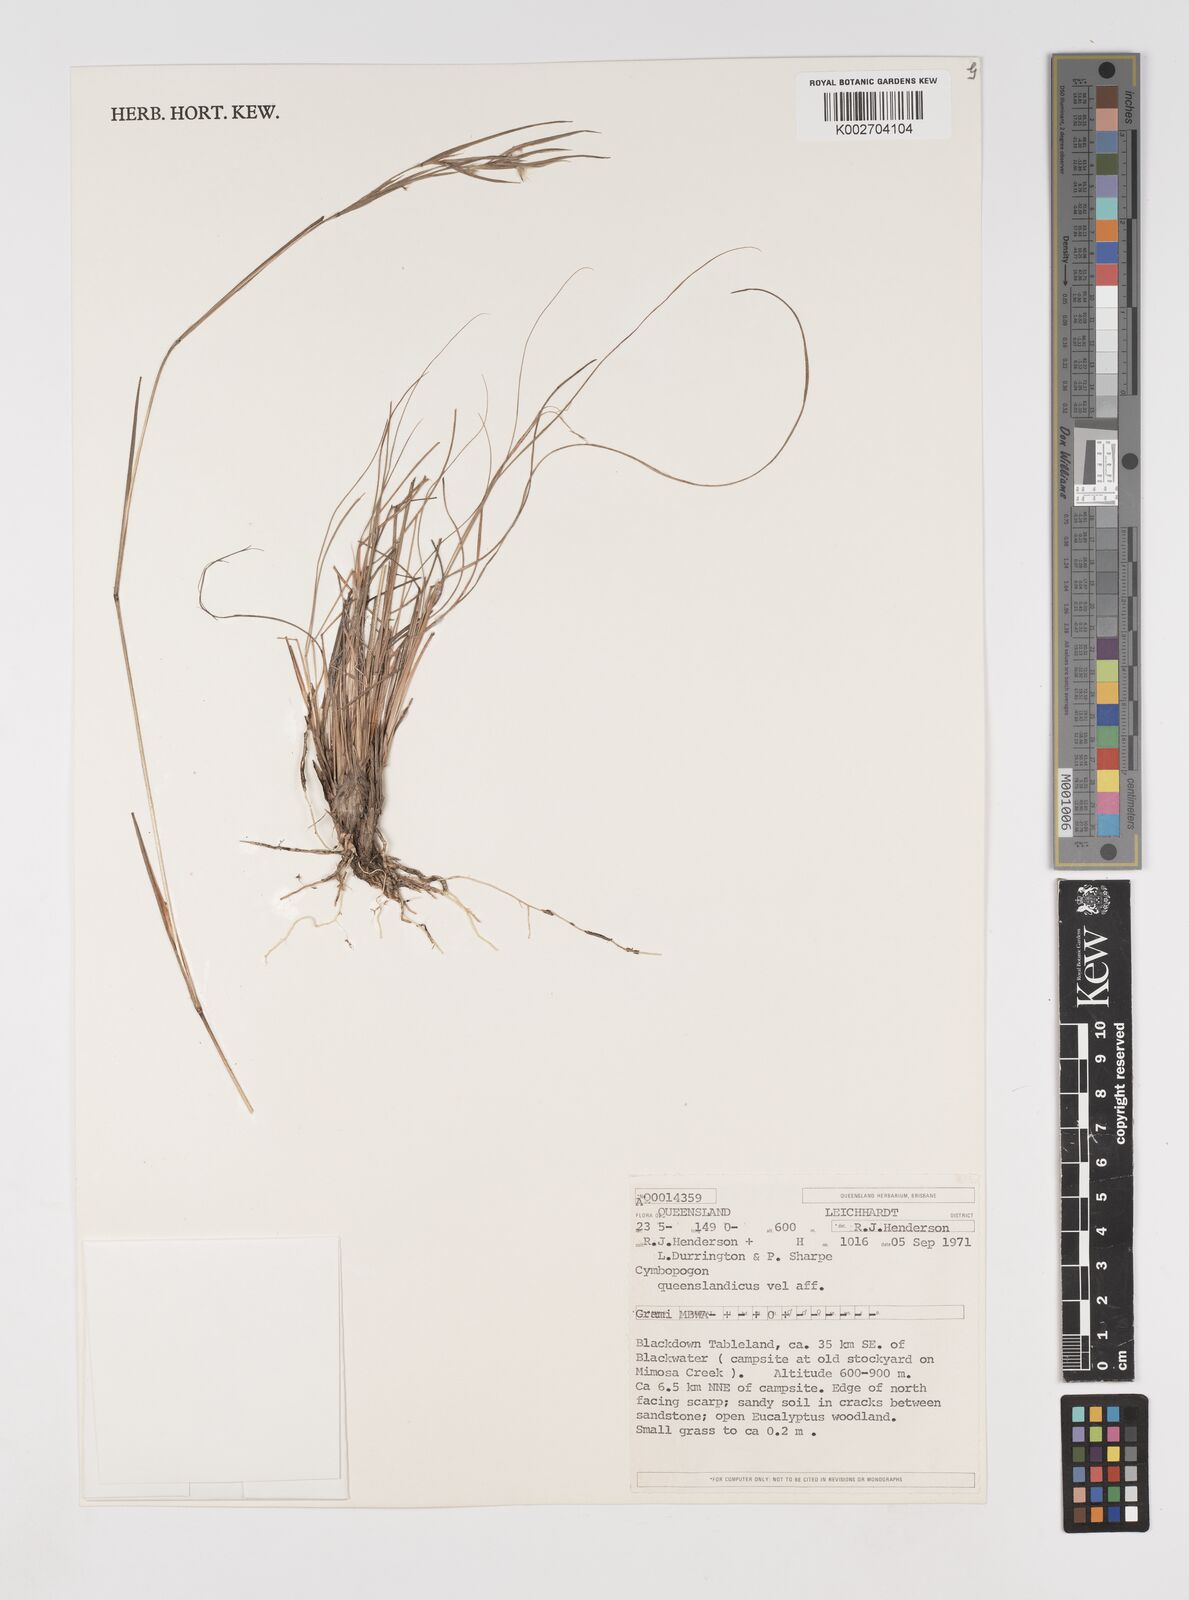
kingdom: Plantae
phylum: Tracheophyta
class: Liliopsida
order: Poales
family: Poaceae
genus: Cymbopogon
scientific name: Cymbopogon queenslandicus
